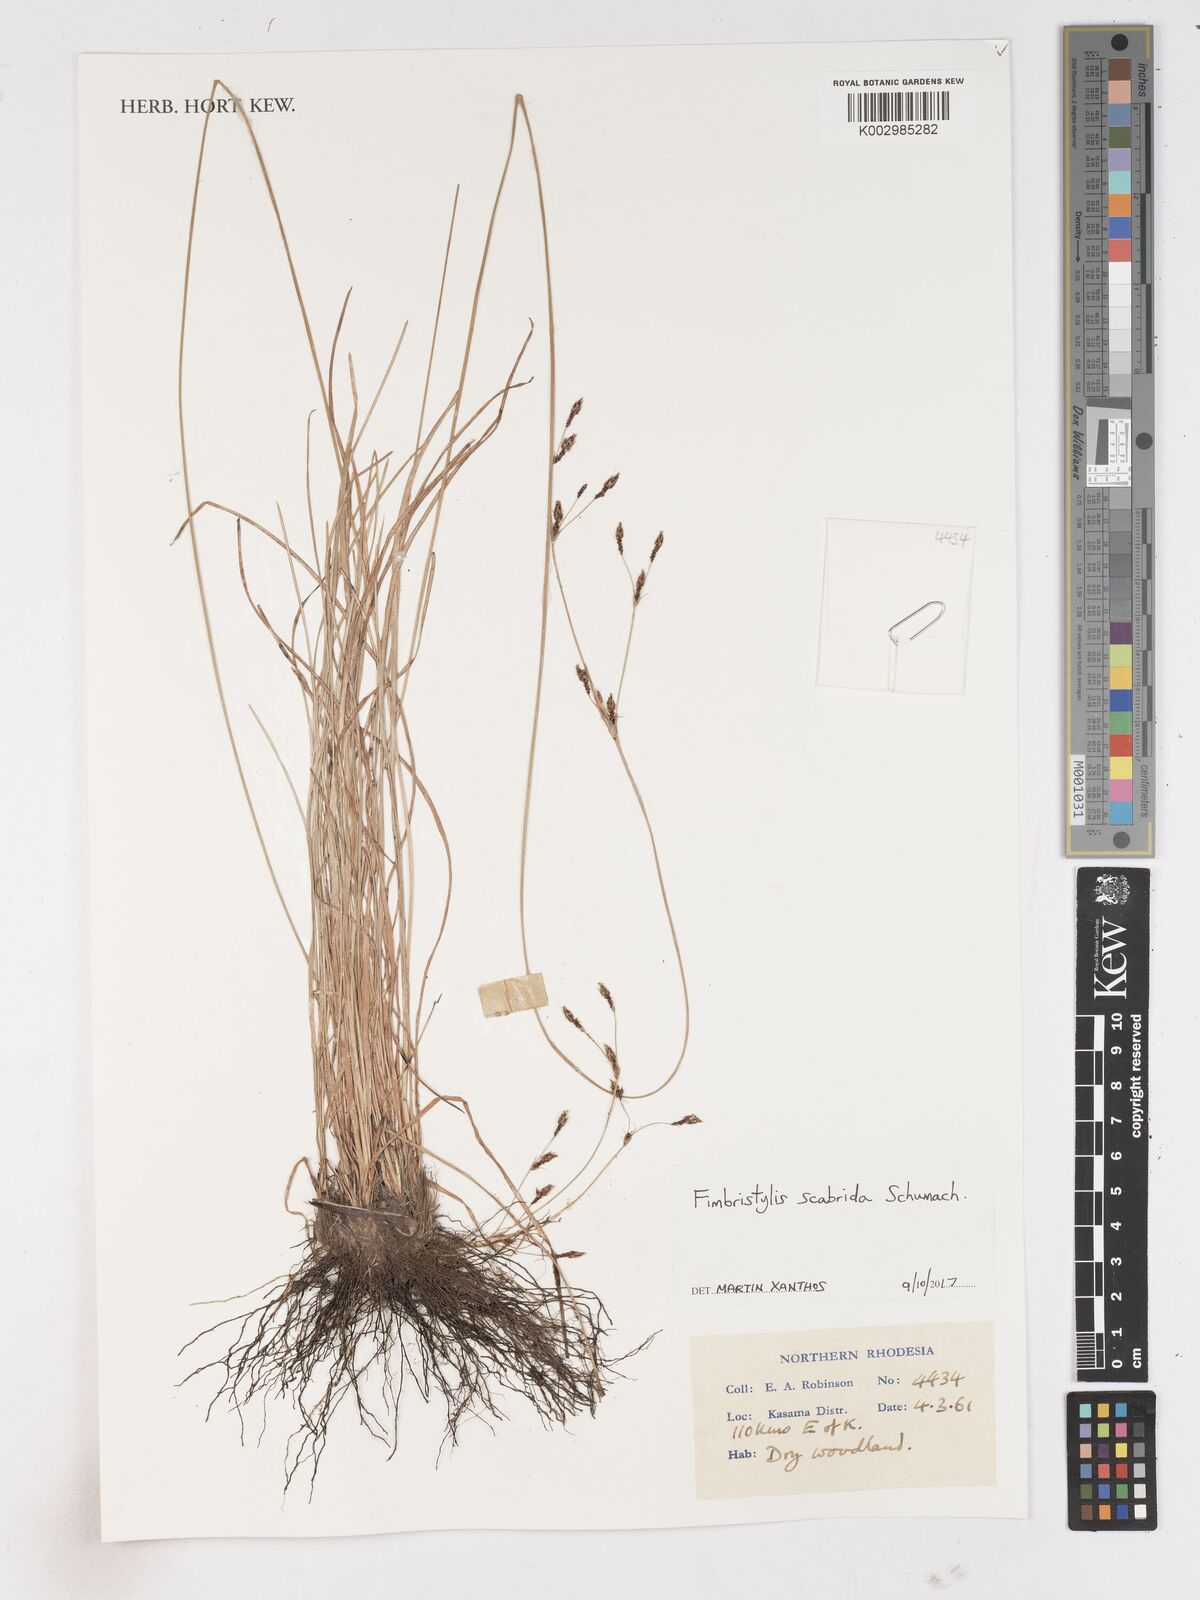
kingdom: Plantae
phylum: Tracheophyta
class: Liliopsida
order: Poales
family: Cyperaceae
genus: Fimbristylis
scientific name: Fimbristylis scabrida
